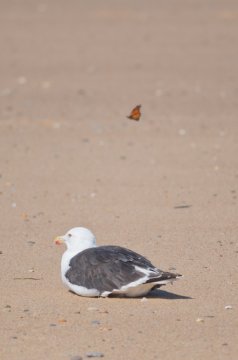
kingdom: Animalia
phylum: Arthropoda
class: Insecta
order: Lepidoptera
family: Nymphalidae
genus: Danaus
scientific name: Danaus plexippus
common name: Monarch
